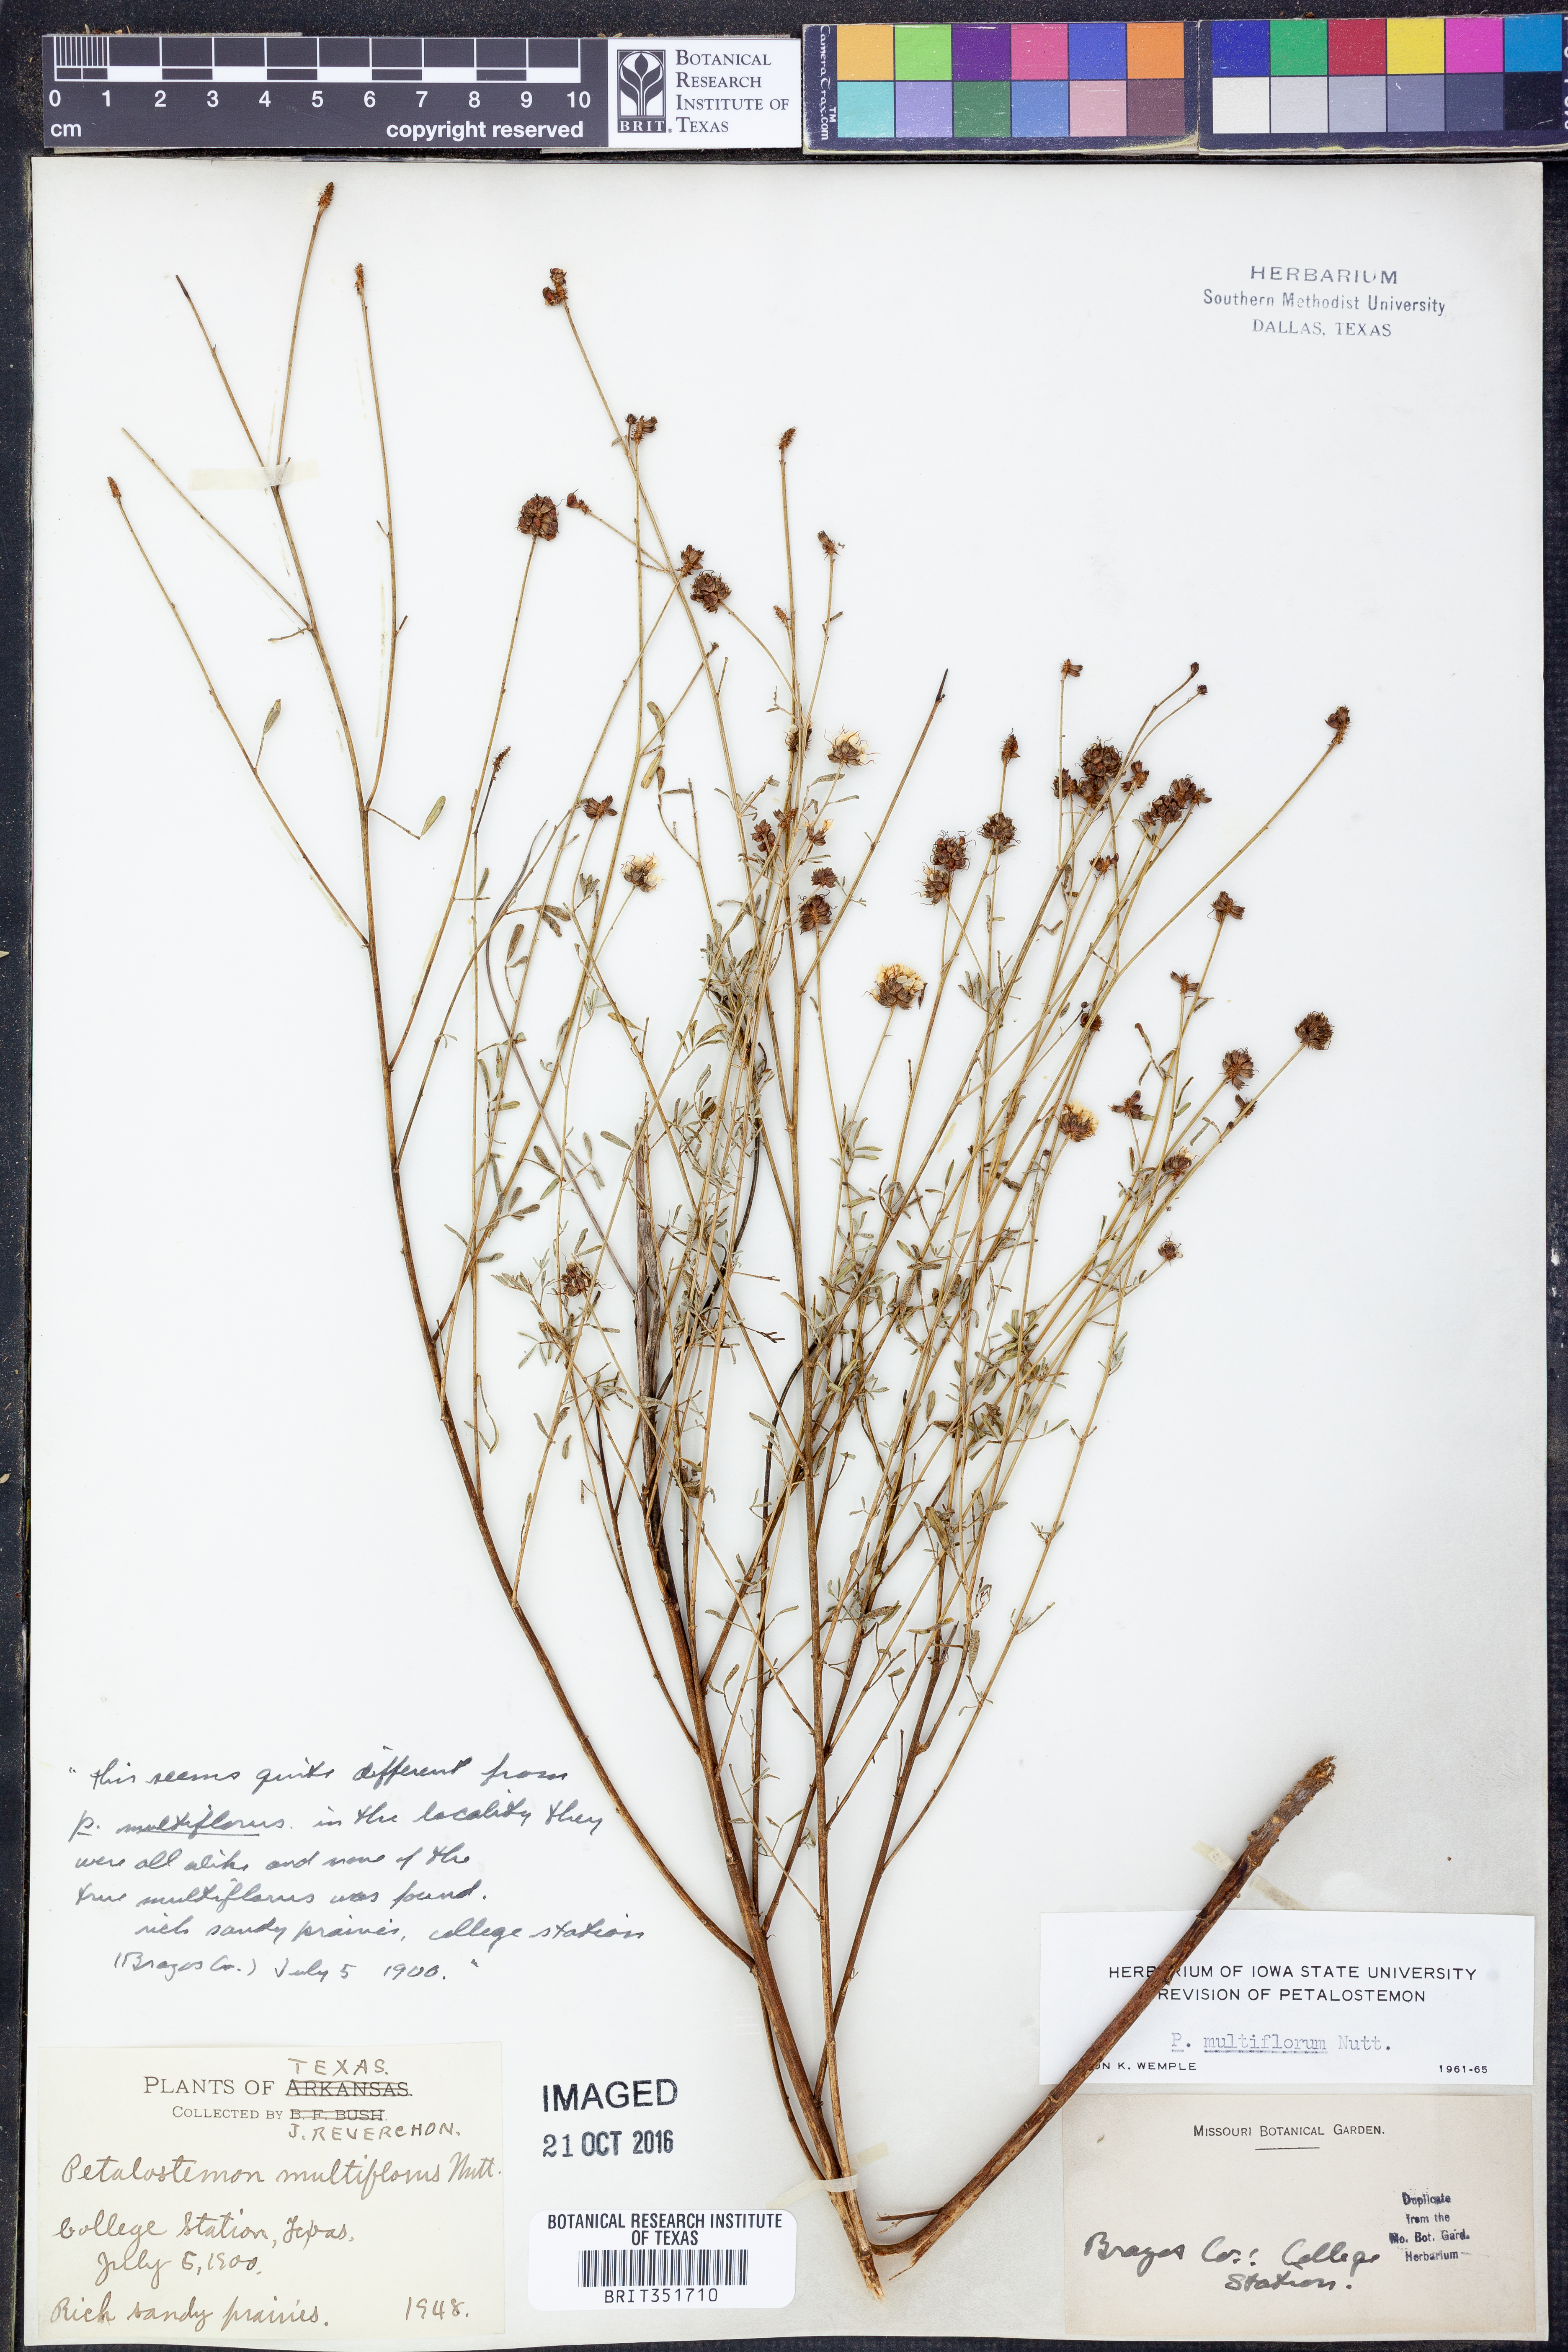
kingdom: Plantae
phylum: Tracheophyta
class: Magnoliopsida
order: Fabales
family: Fabaceae
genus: Dalea
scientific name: Dalea multiflora
